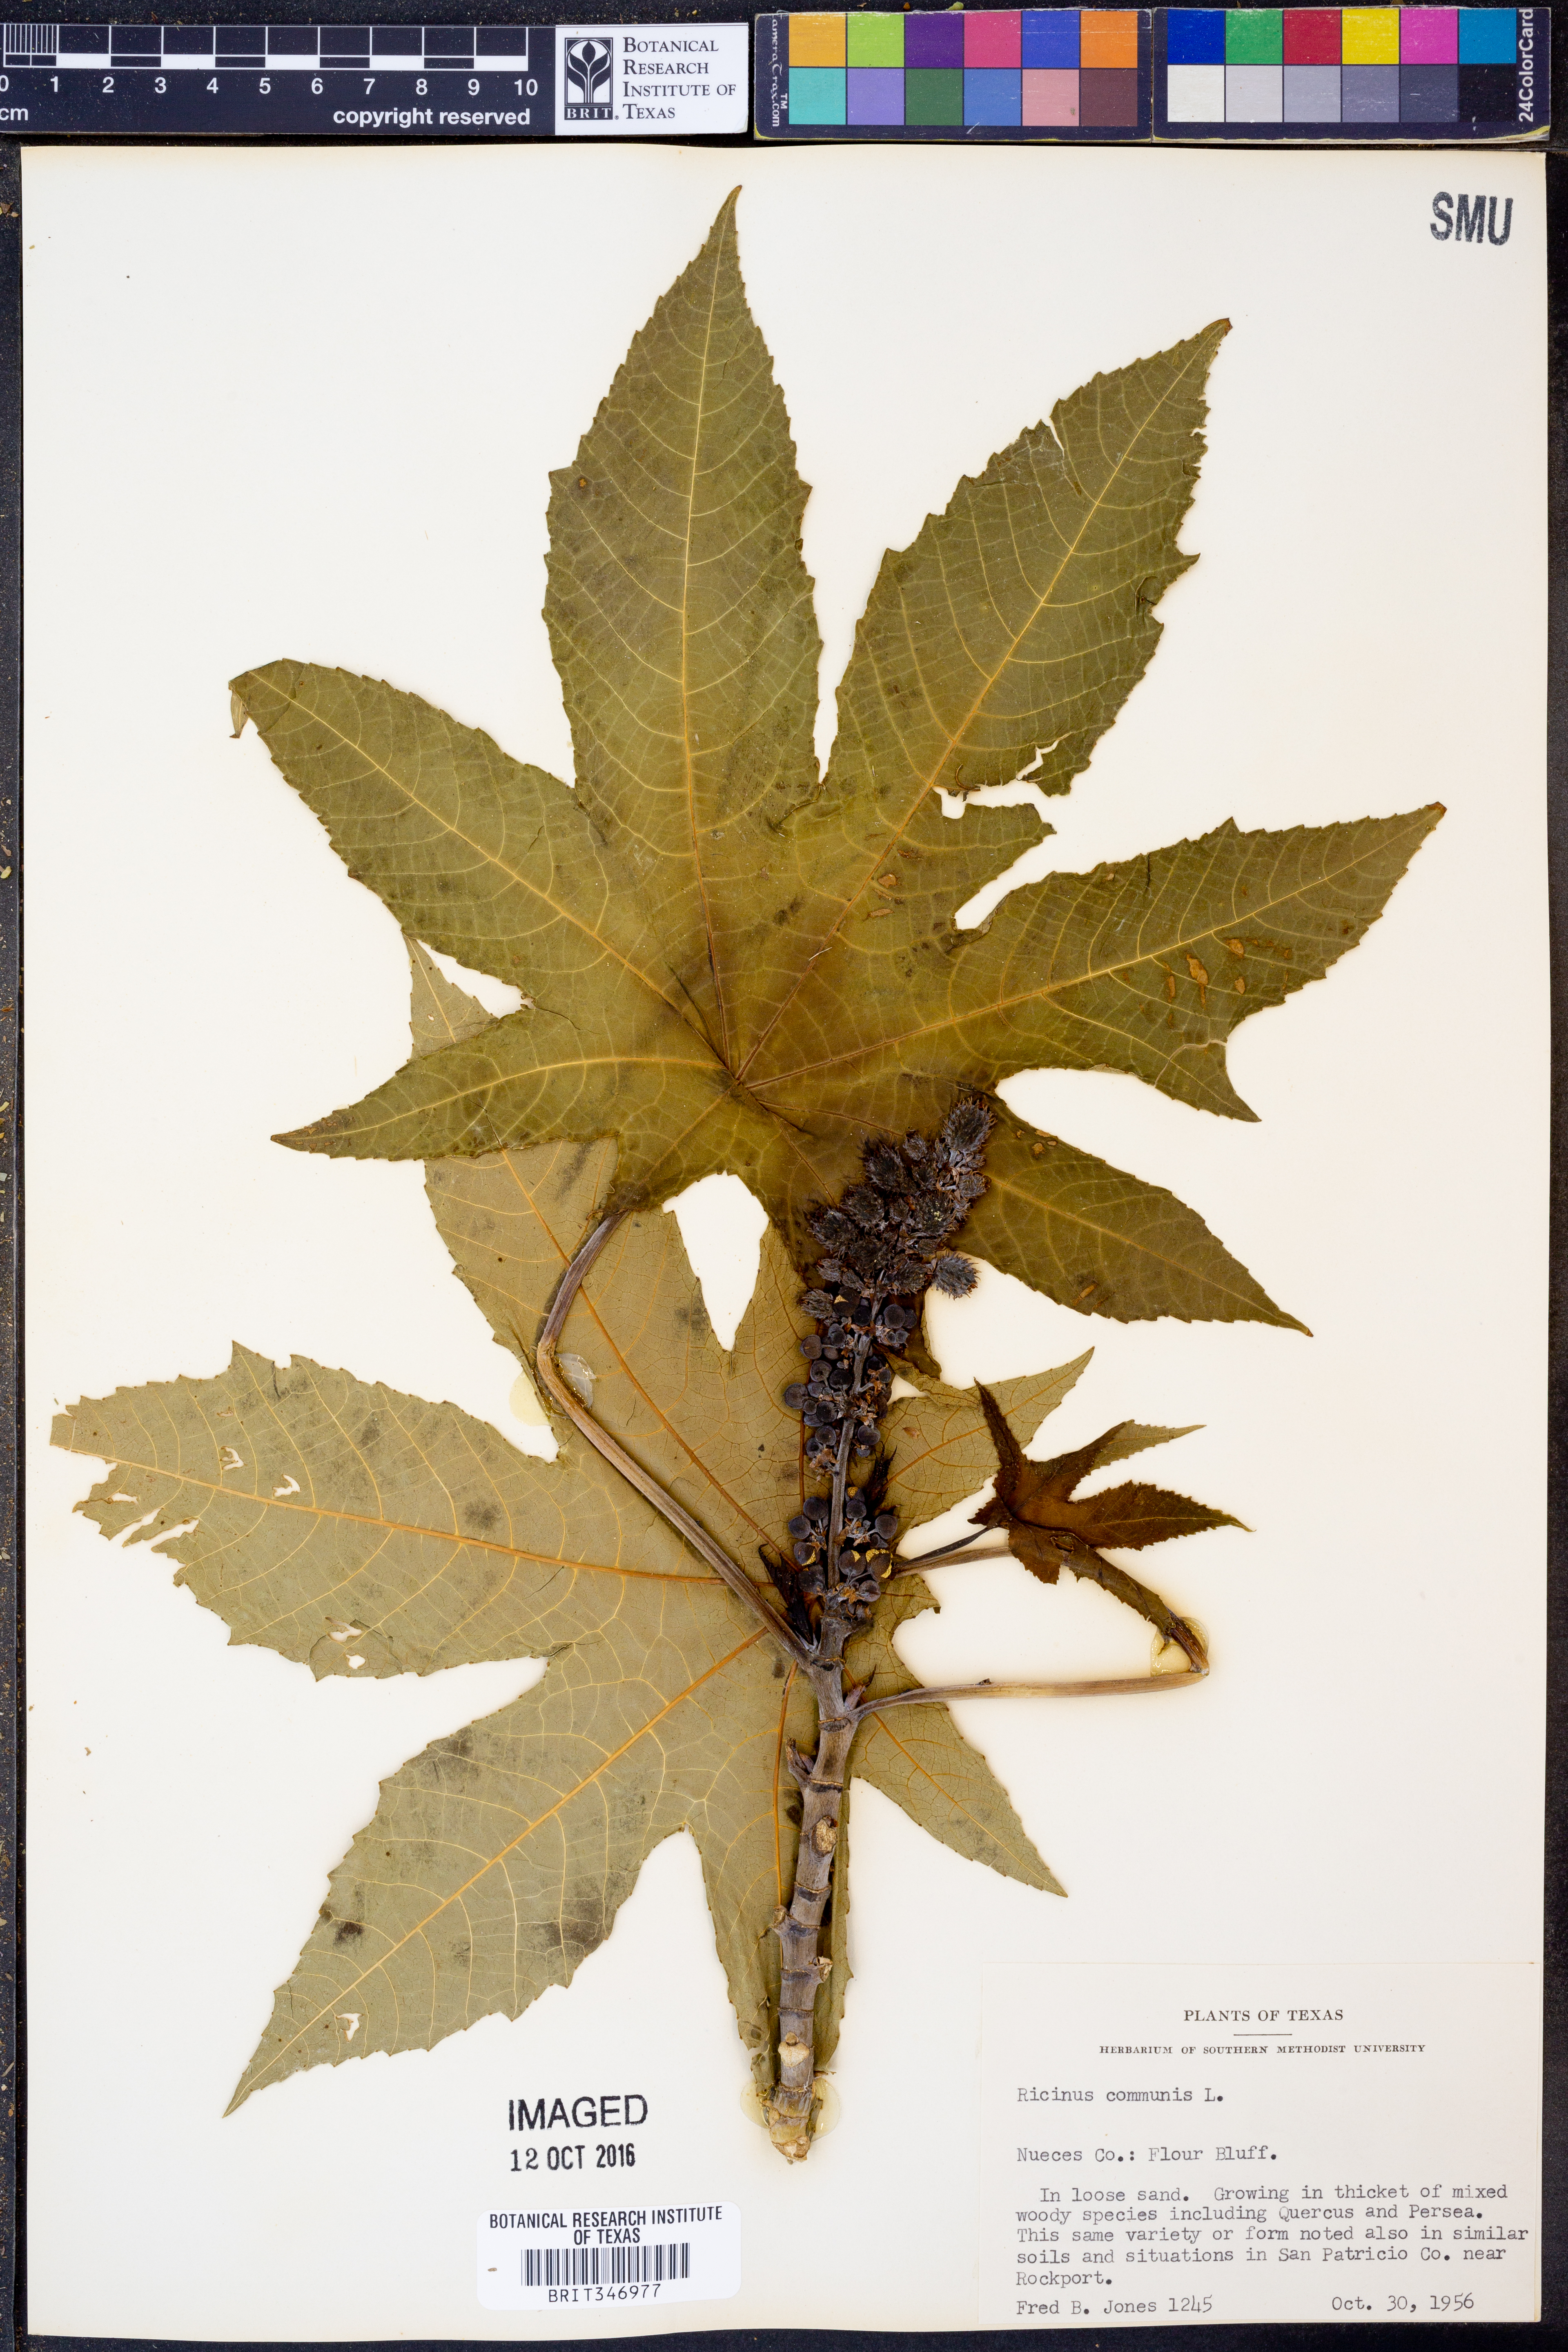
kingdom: Plantae
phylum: Tracheophyta
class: Magnoliopsida
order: Malpighiales
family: Euphorbiaceae
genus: Ricinus
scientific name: Ricinus communis
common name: Castor-oil-plant
